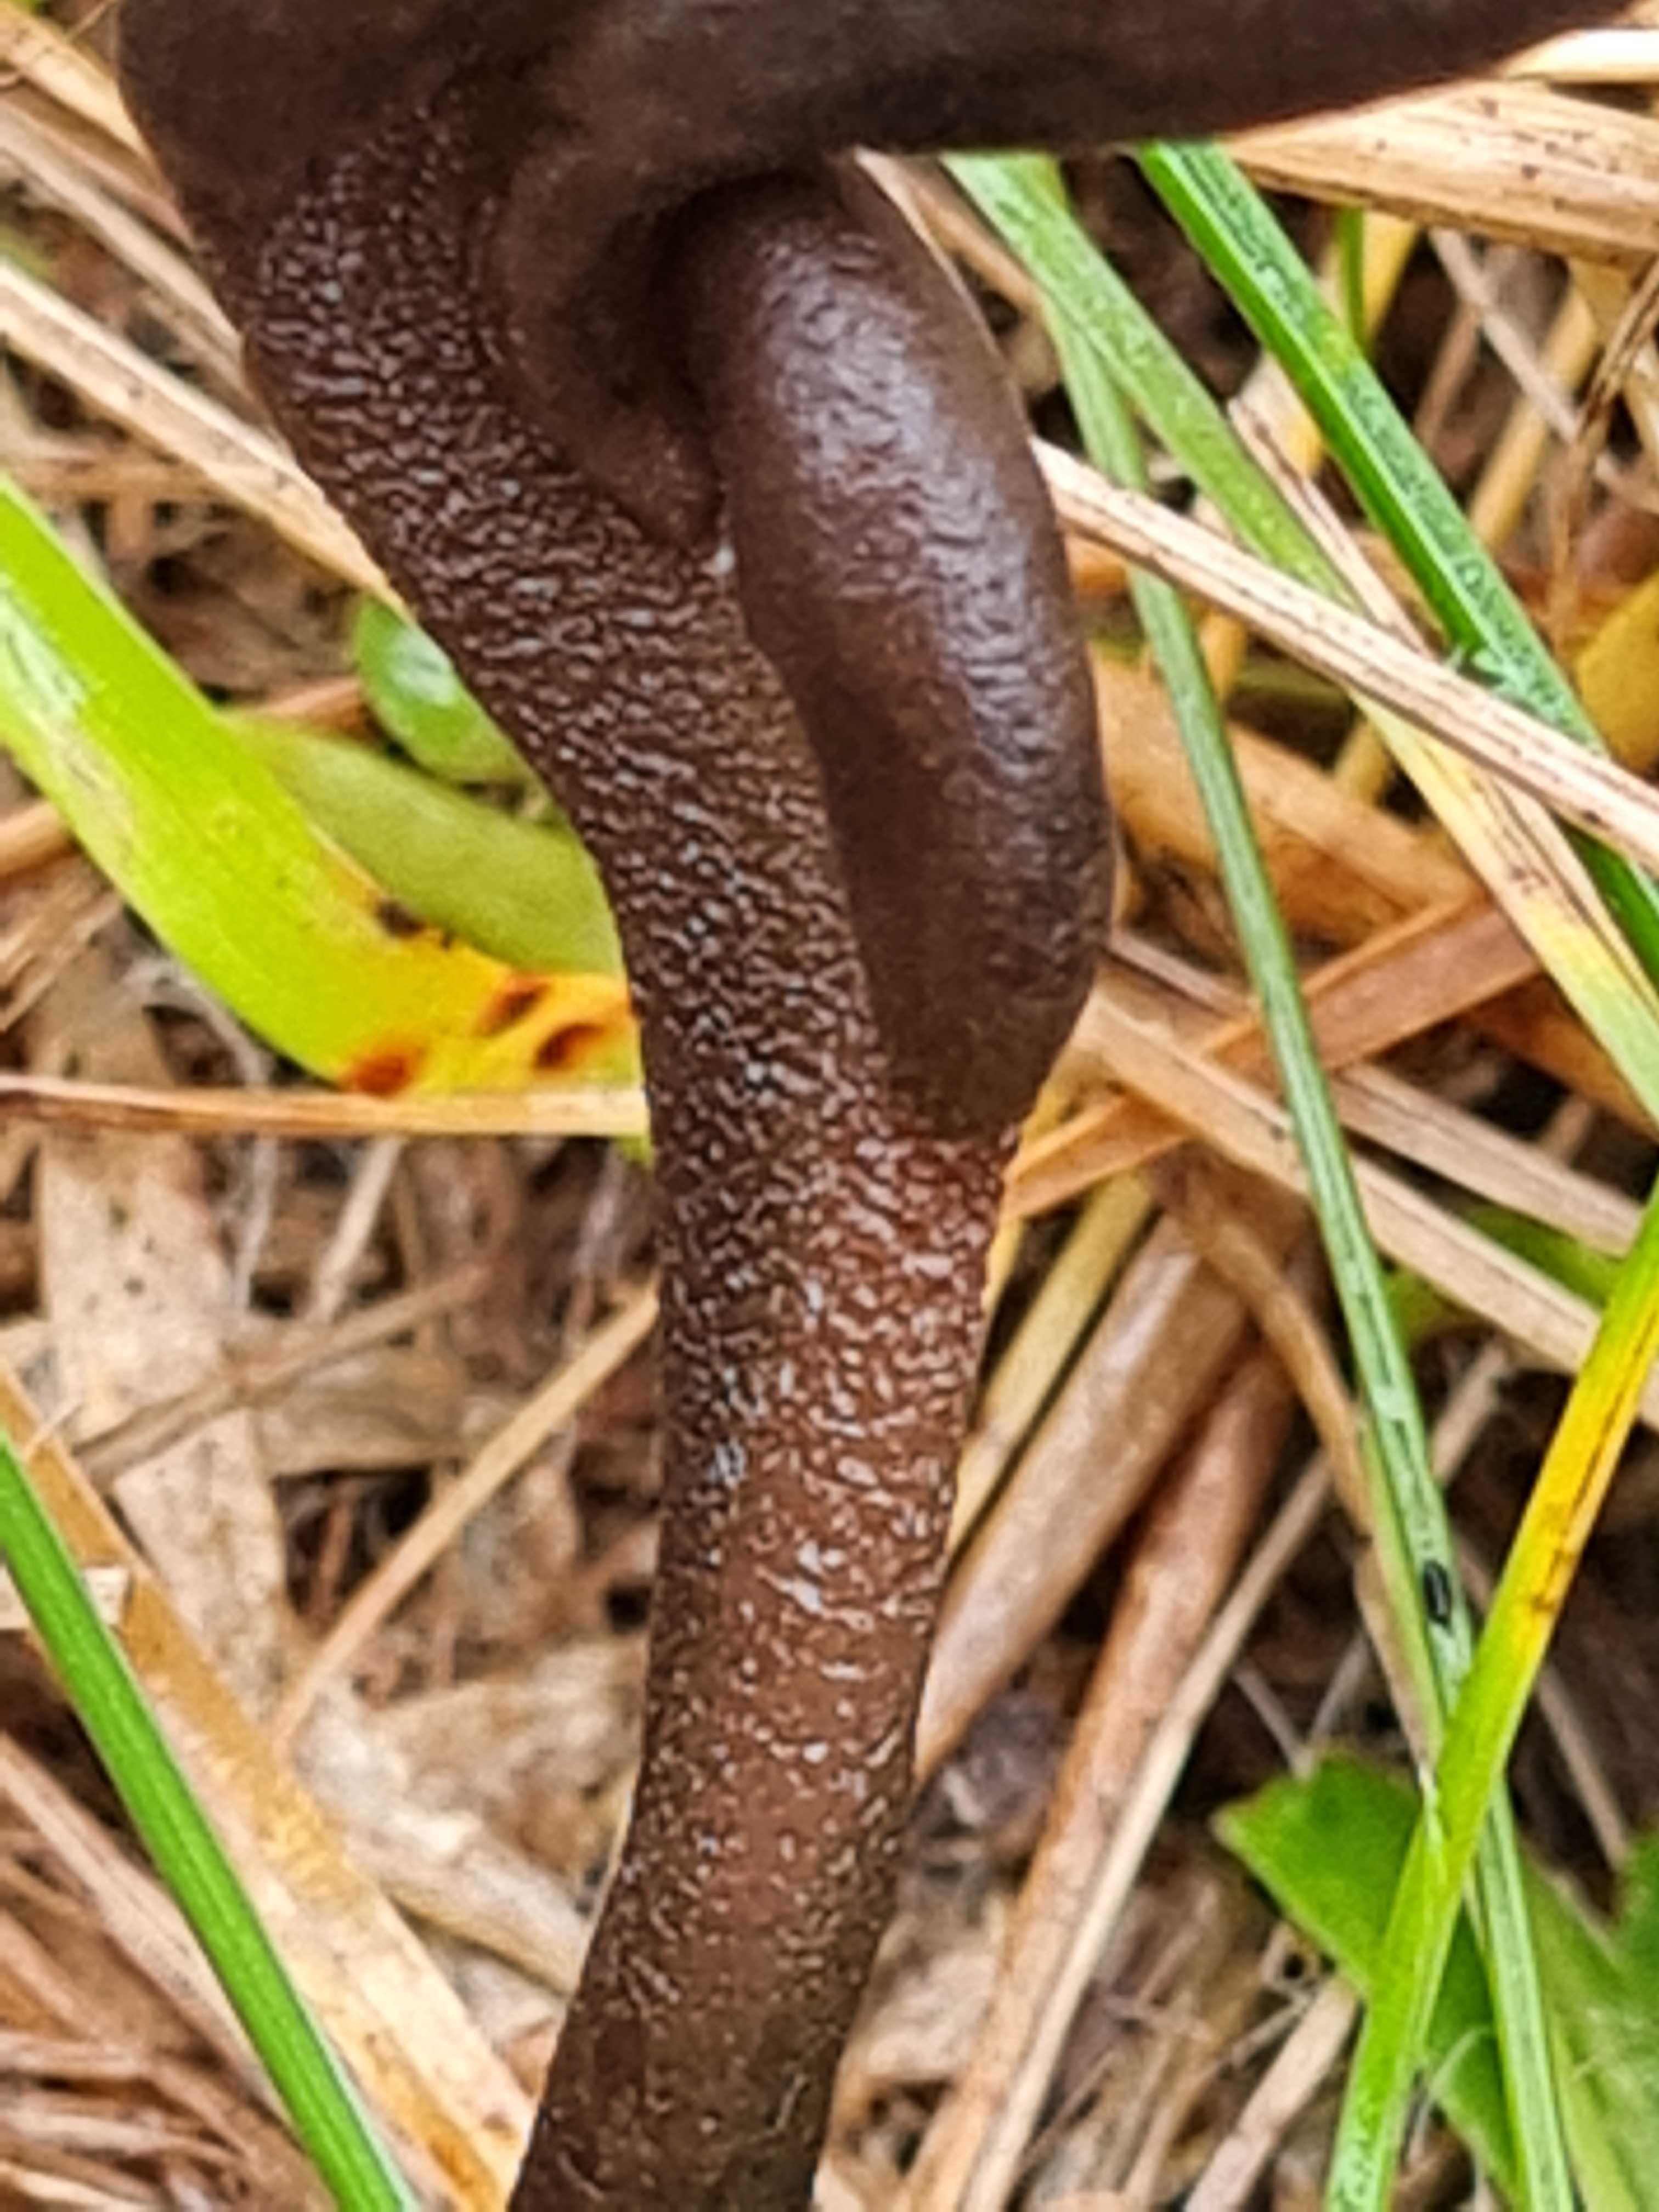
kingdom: Fungi
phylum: Ascomycota
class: Geoglossomycetes
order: Geoglossales
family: Geoglossaceae
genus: Geoglossum
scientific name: Geoglossum
